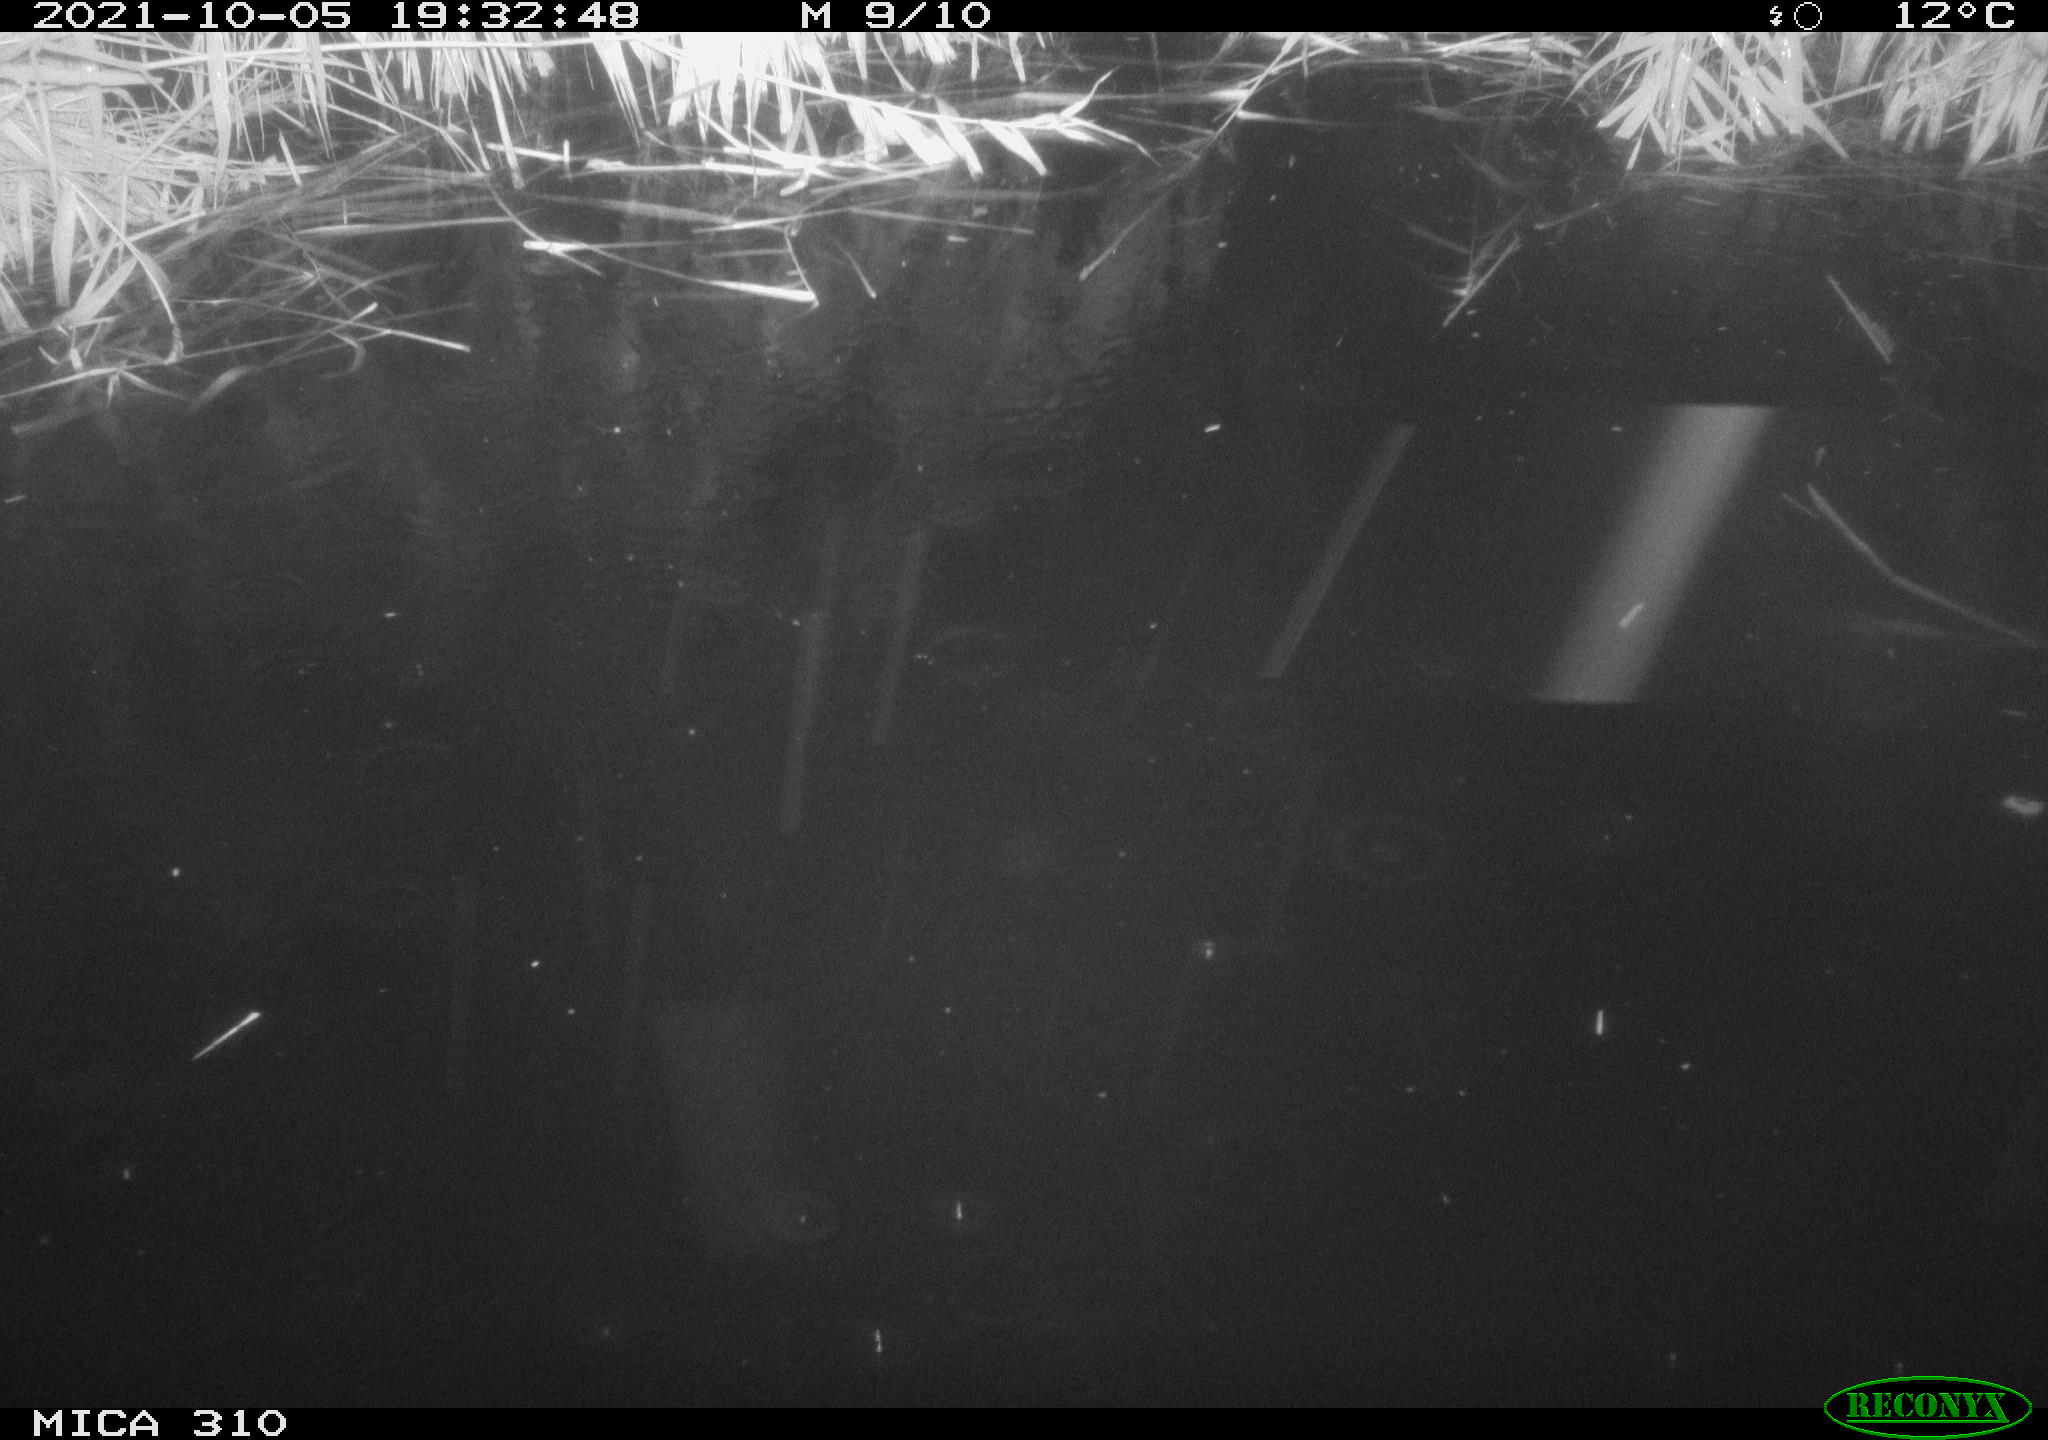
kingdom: Animalia
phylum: Chordata
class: Aves
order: Anseriformes
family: Anatidae
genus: Mareca
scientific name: Mareca strepera
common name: Gadwall
